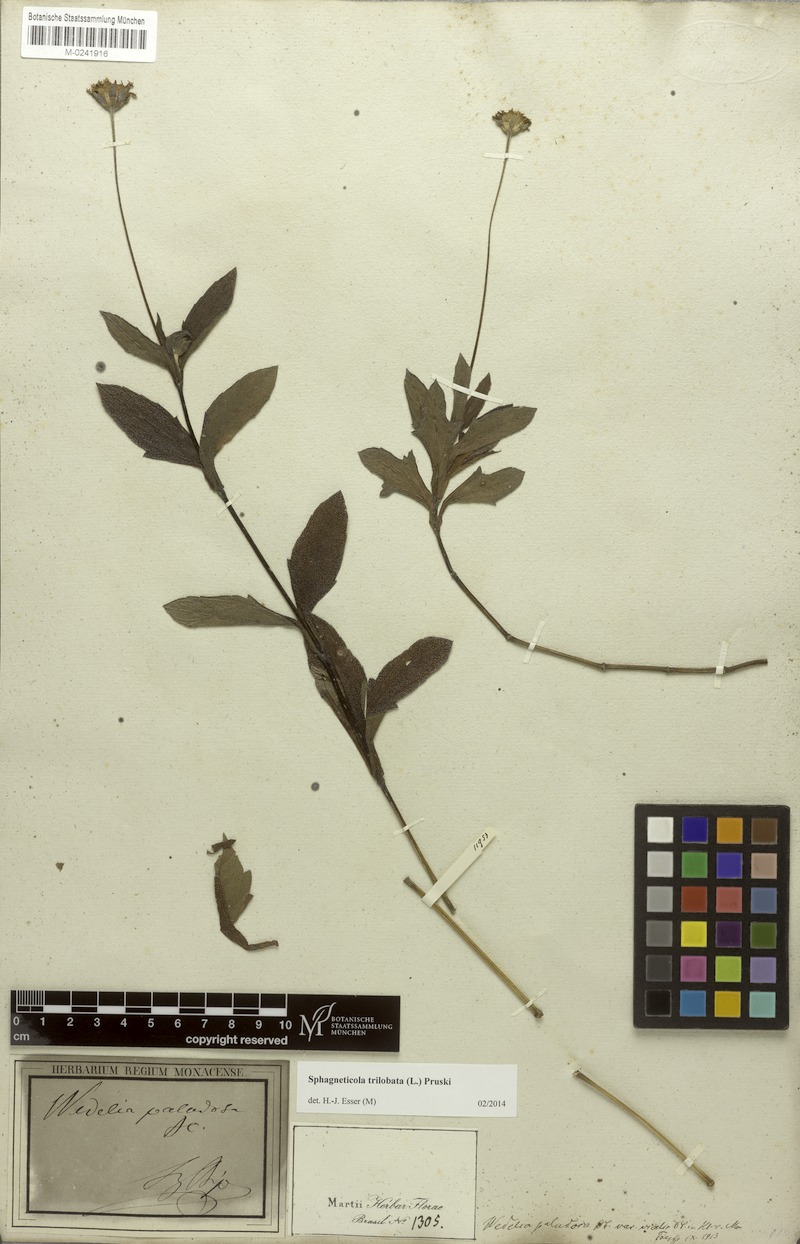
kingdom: Plantae
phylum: Tracheophyta
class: Magnoliopsida
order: Asterales
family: Asteraceae
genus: Sphagneticola
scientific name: Sphagneticola trilobata
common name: Bay biscayne creeping-oxeye
